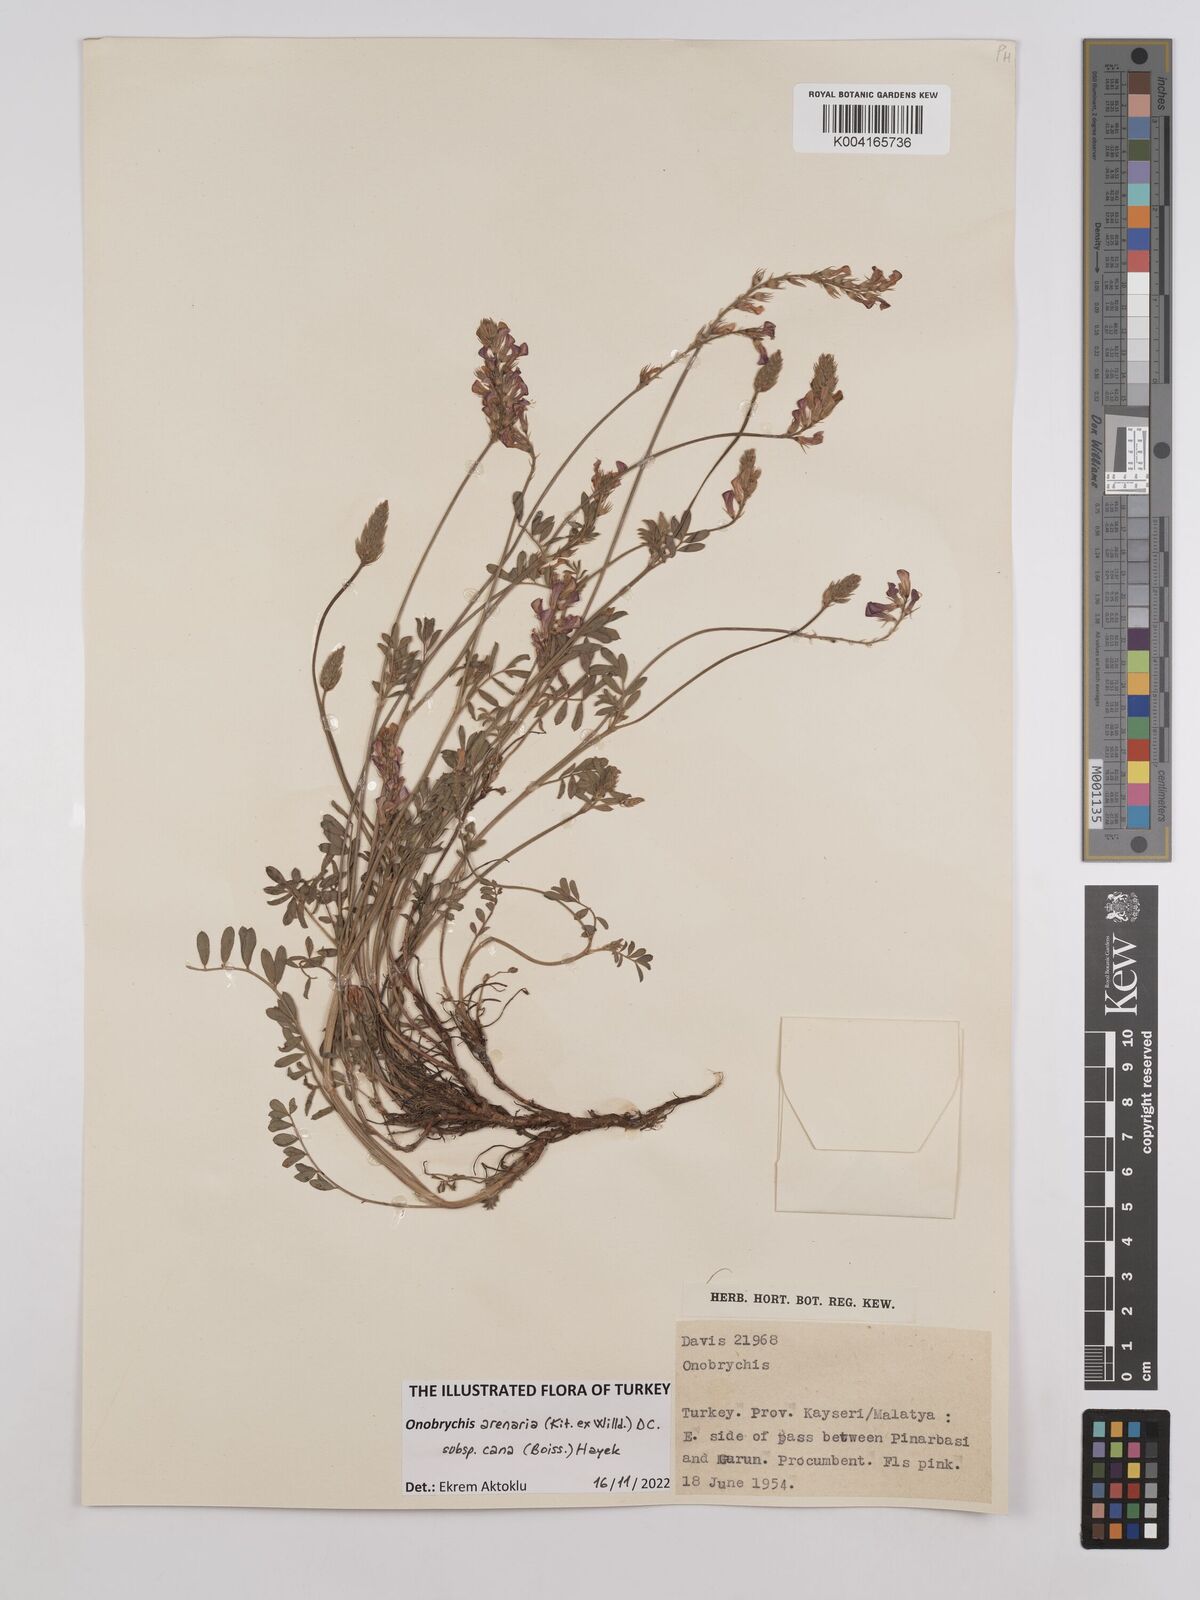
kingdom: Plantae
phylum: Tracheophyta
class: Magnoliopsida
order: Fabales
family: Fabaceae
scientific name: Fabaceae
